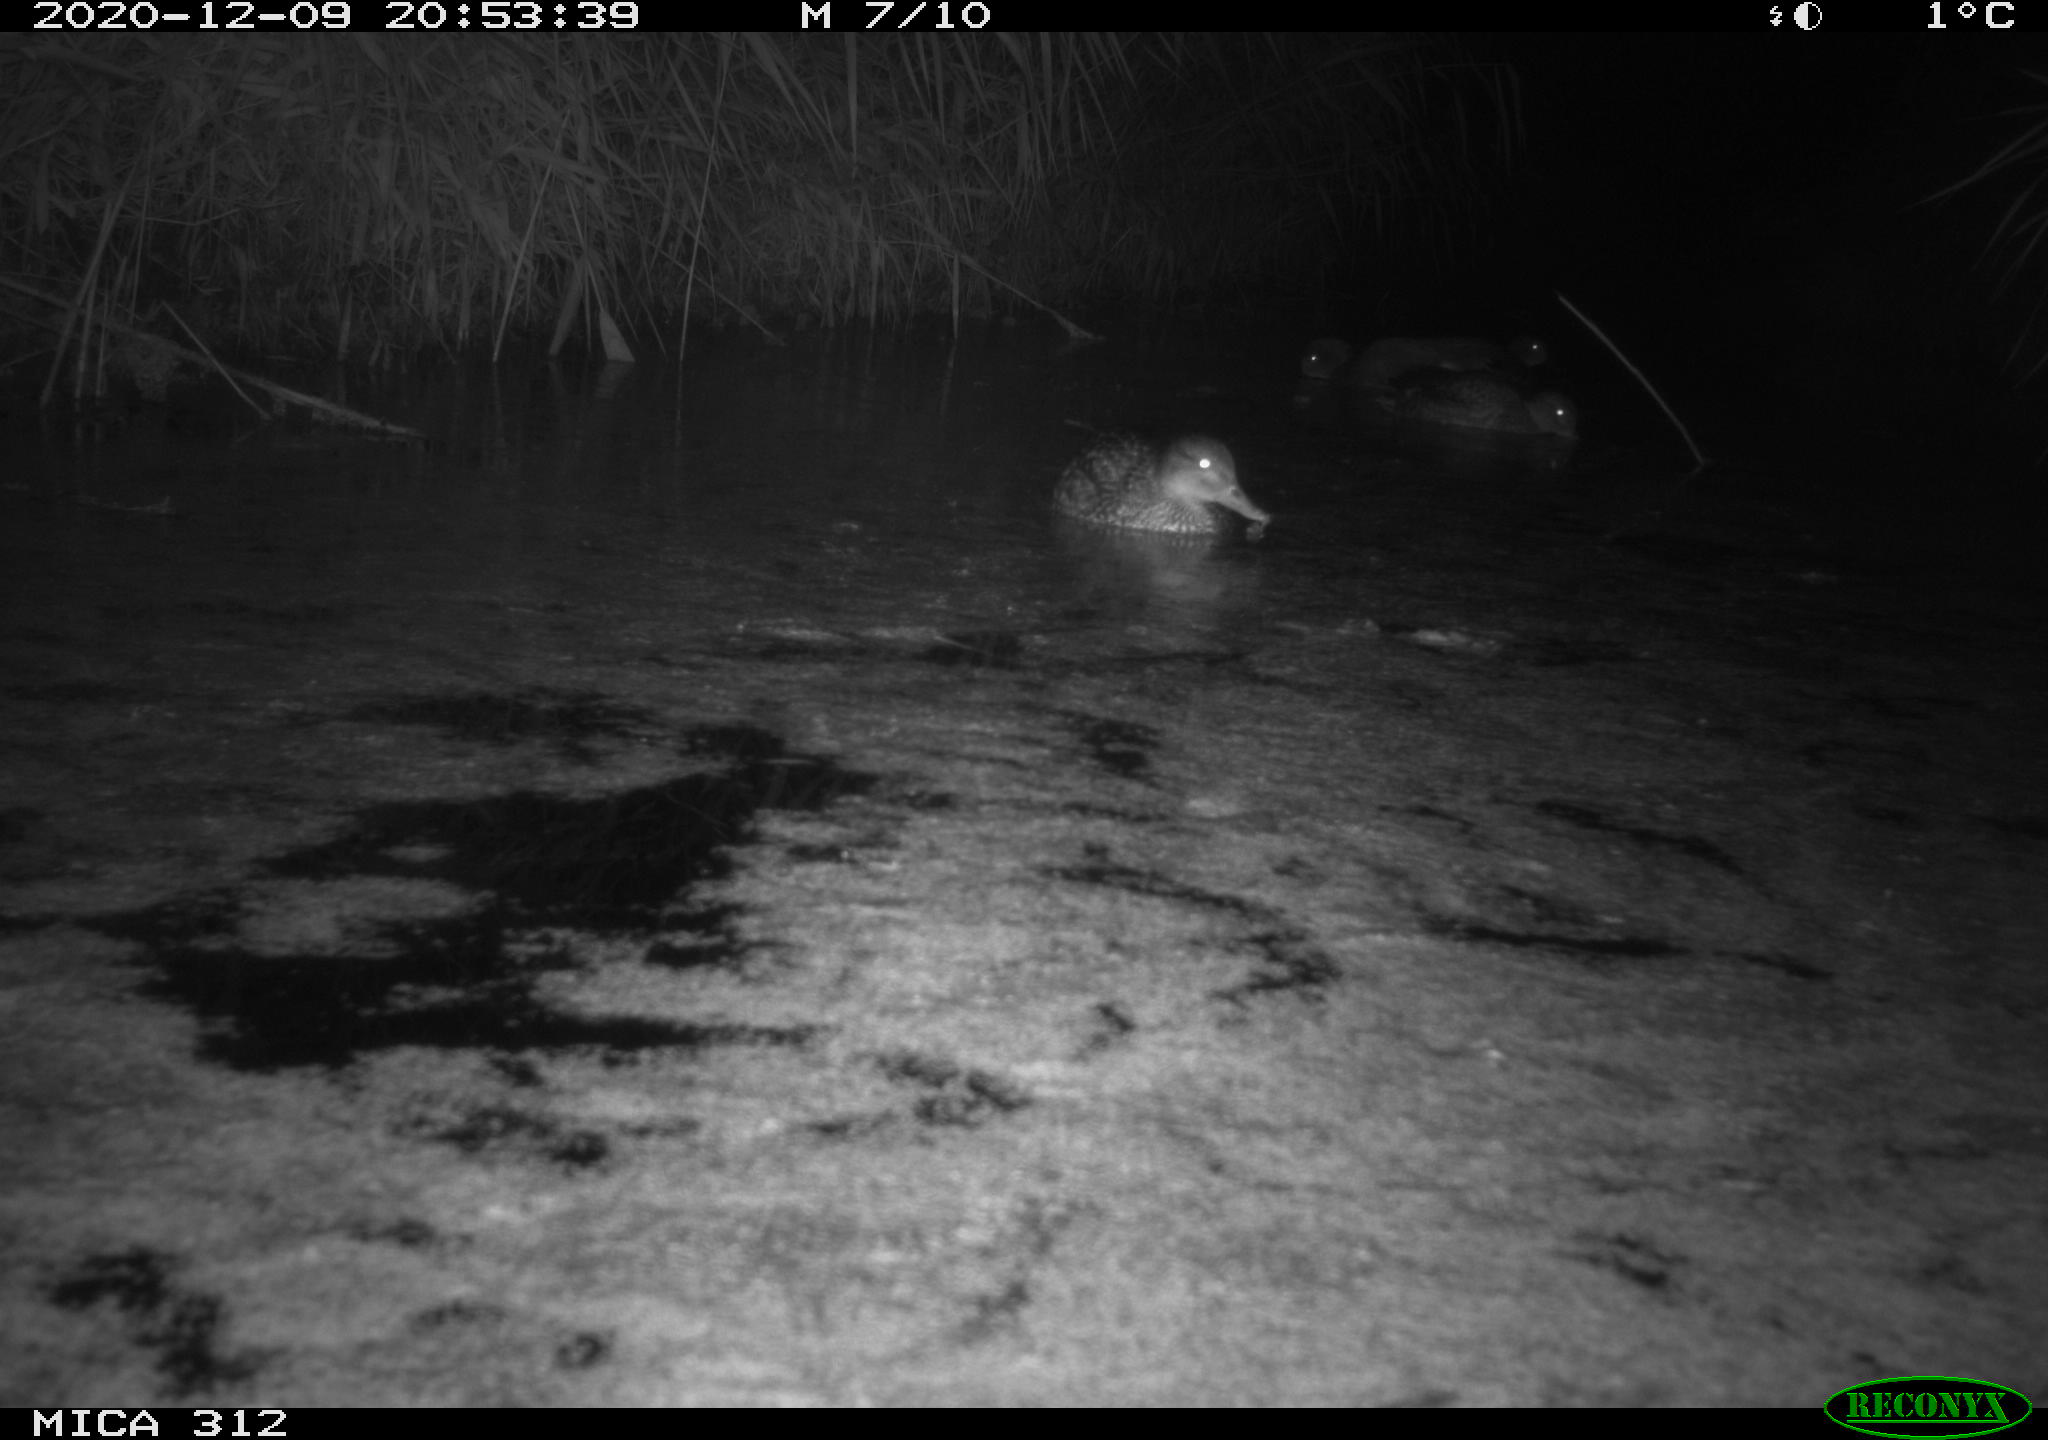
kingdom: Animalia
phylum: Chordata
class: Aves
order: Anseriformes
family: Anatidae
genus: Mareca
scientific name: Mareca strepera
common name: Gadwall
